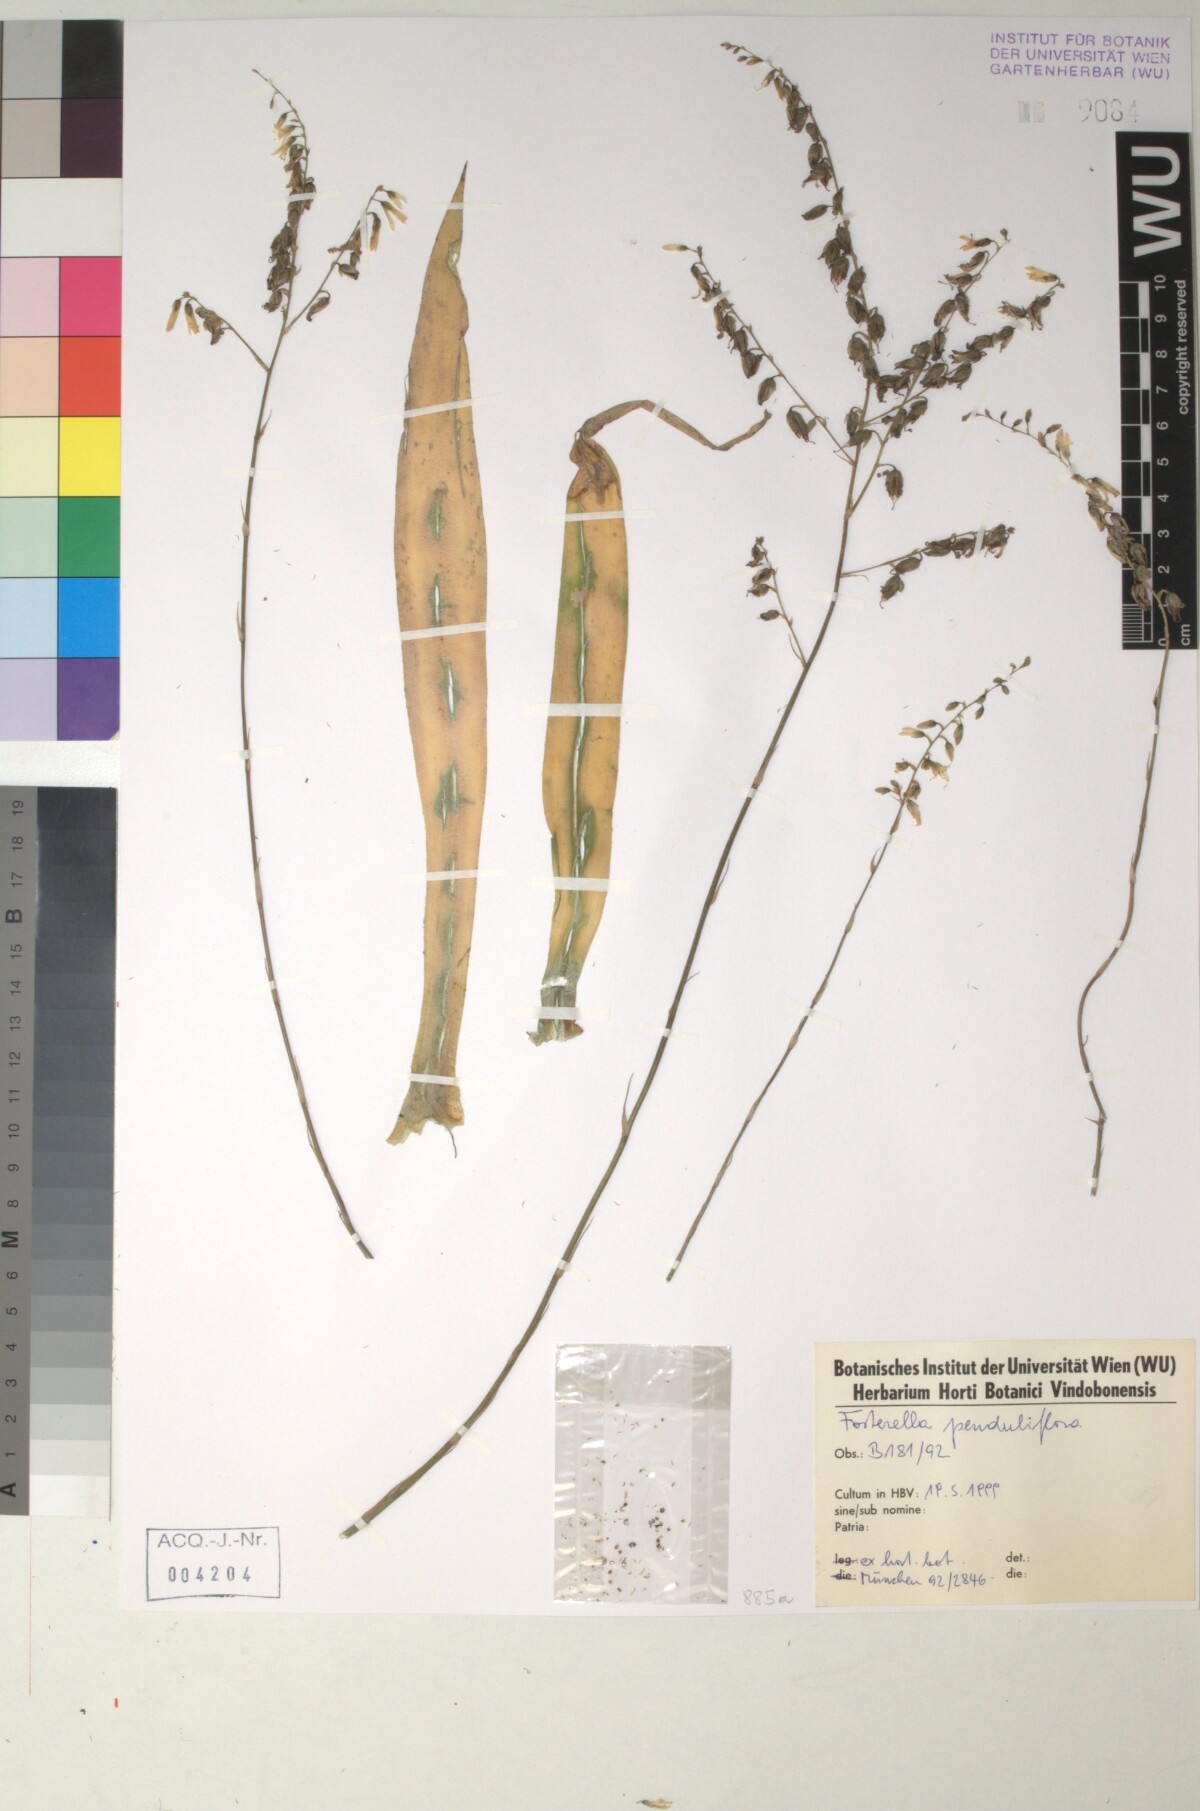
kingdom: Plantae
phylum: Tracheophyta
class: Liliopsida
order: Poales
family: Bromeliaceae
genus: Fosterella
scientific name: Fosterella penduliflora
